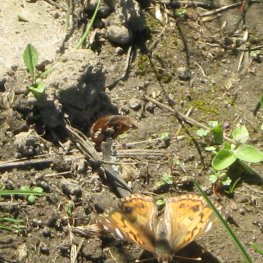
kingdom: Animalia
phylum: Arthropoda
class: Insecta
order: Lepidoptera
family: Nymphalidae
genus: Vanessa
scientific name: Vanessa virginiensis
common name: American Lady
